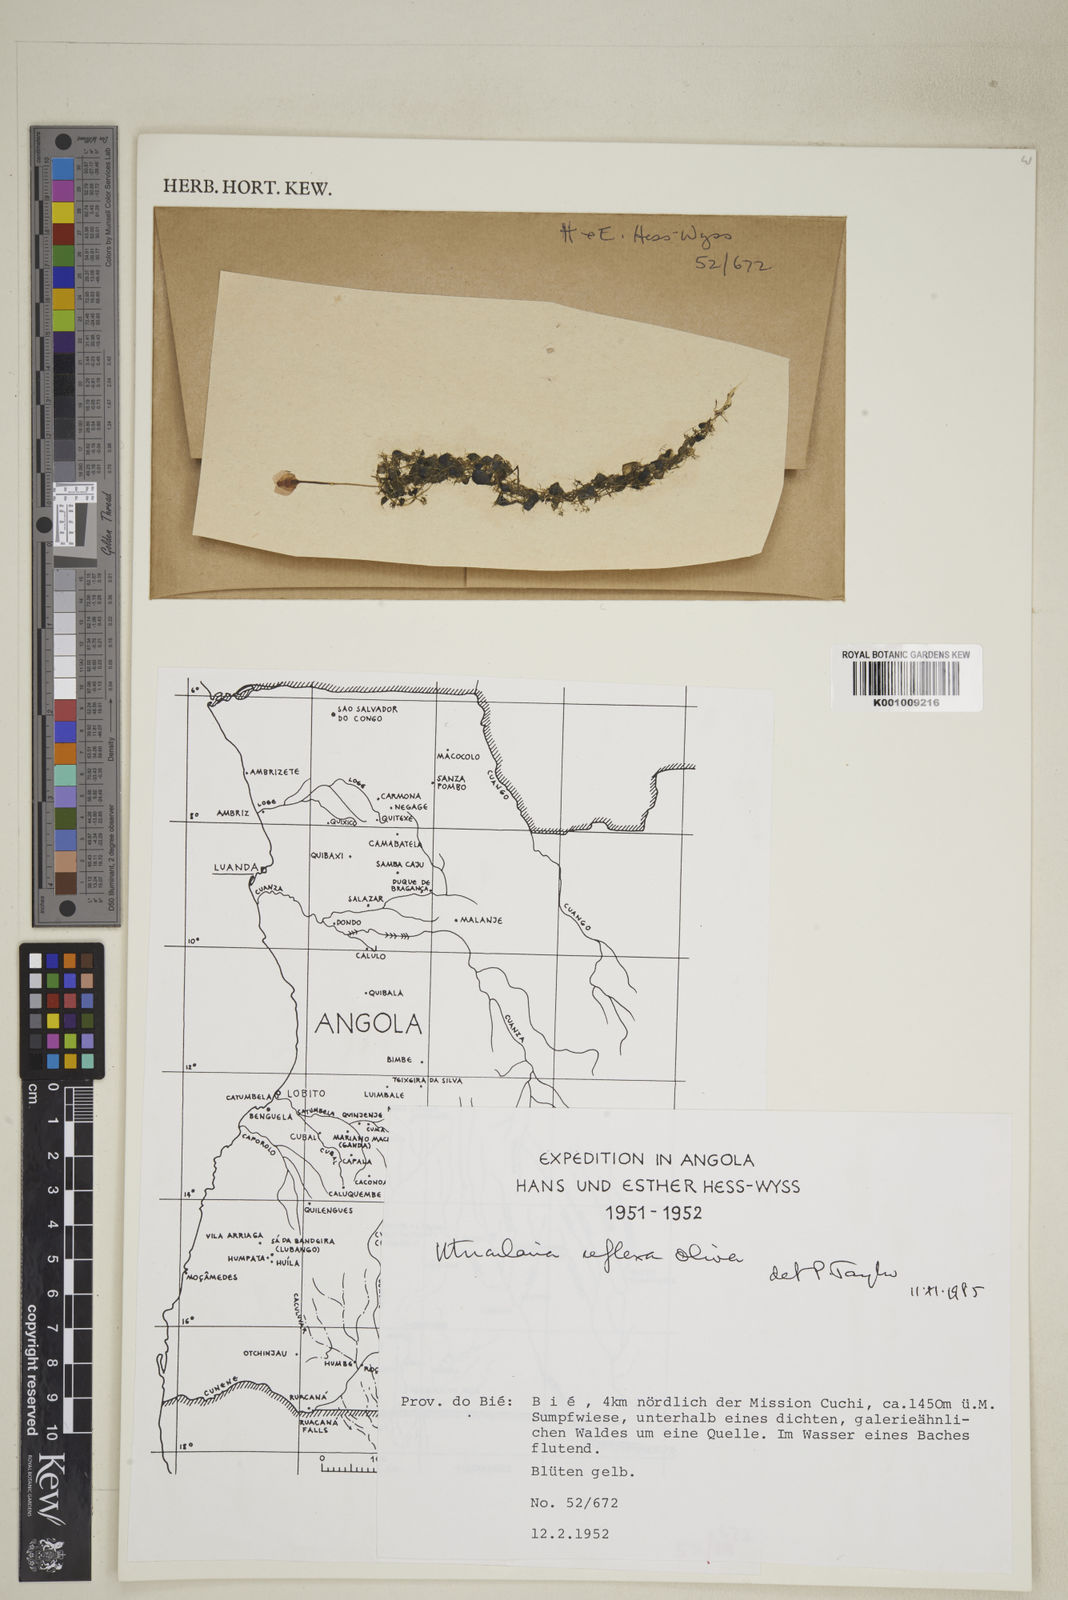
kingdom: Plantae
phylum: Tracheophyta
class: Magnoliopsida
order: Lamiales
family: Lentibulariaceae
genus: Utricularia
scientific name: Utricularia reflexa
